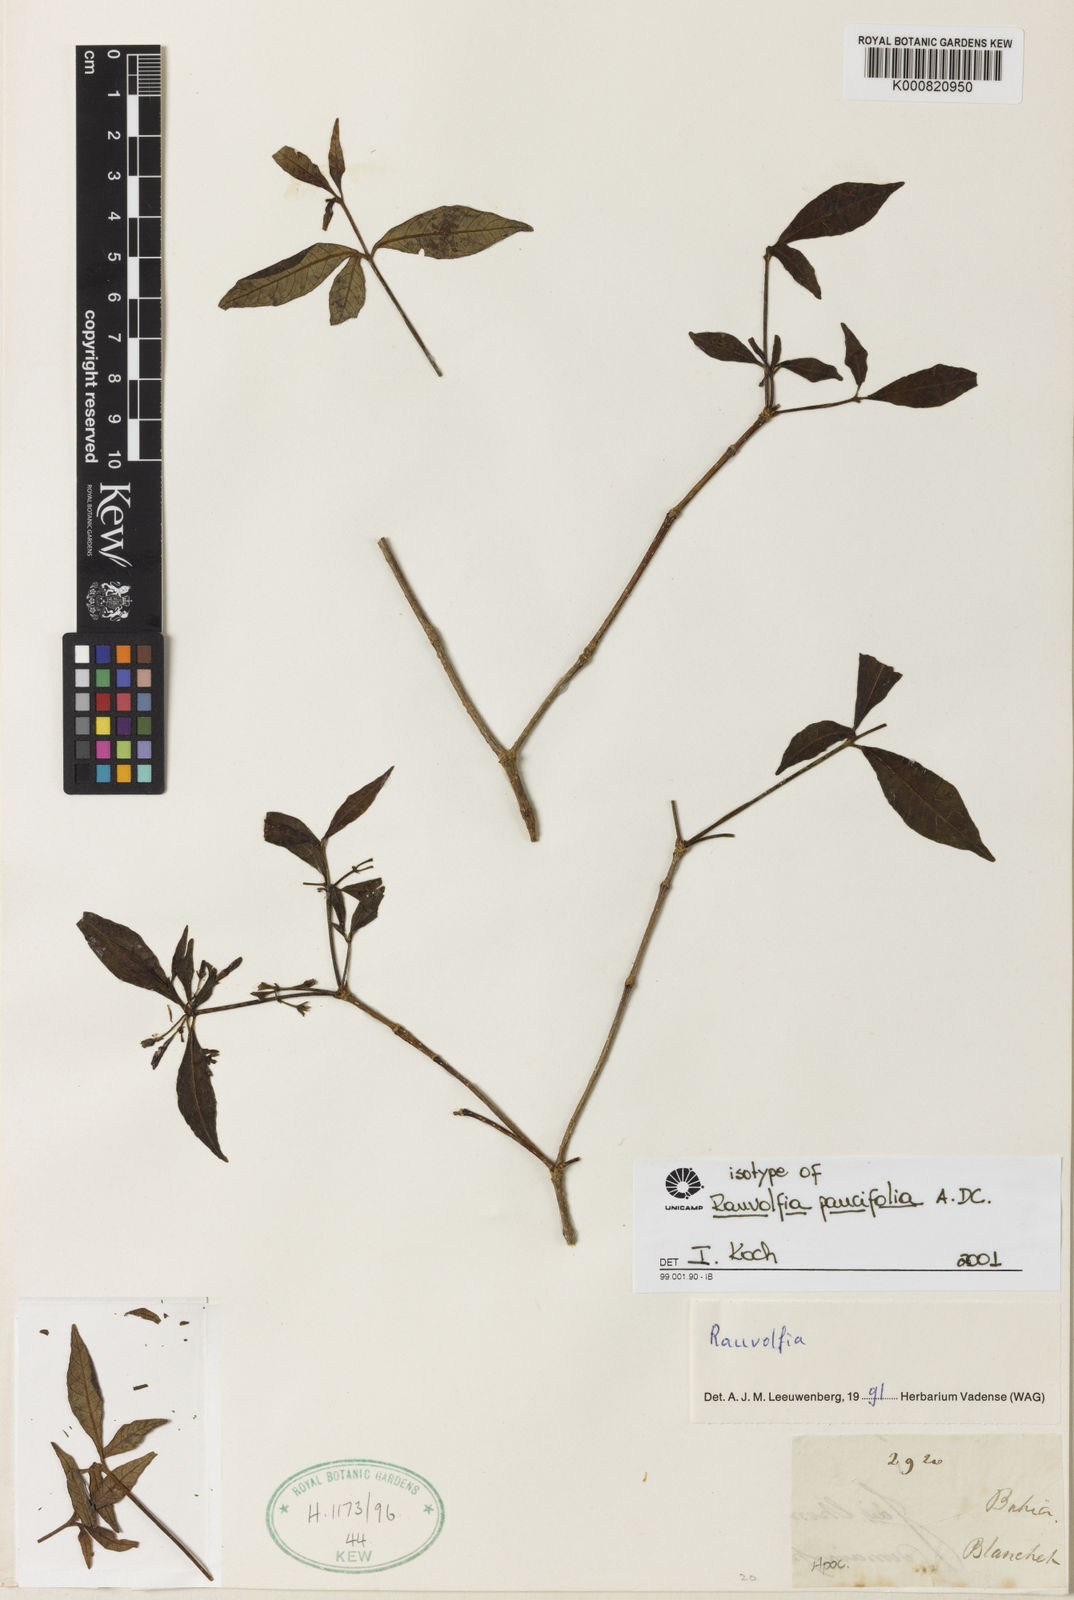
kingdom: Plantae
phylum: Tracheophyta
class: Magnoliopsida
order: Gentianales
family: Apocynaceae
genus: Rauvolfia
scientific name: Rauvolfia paucifolia
